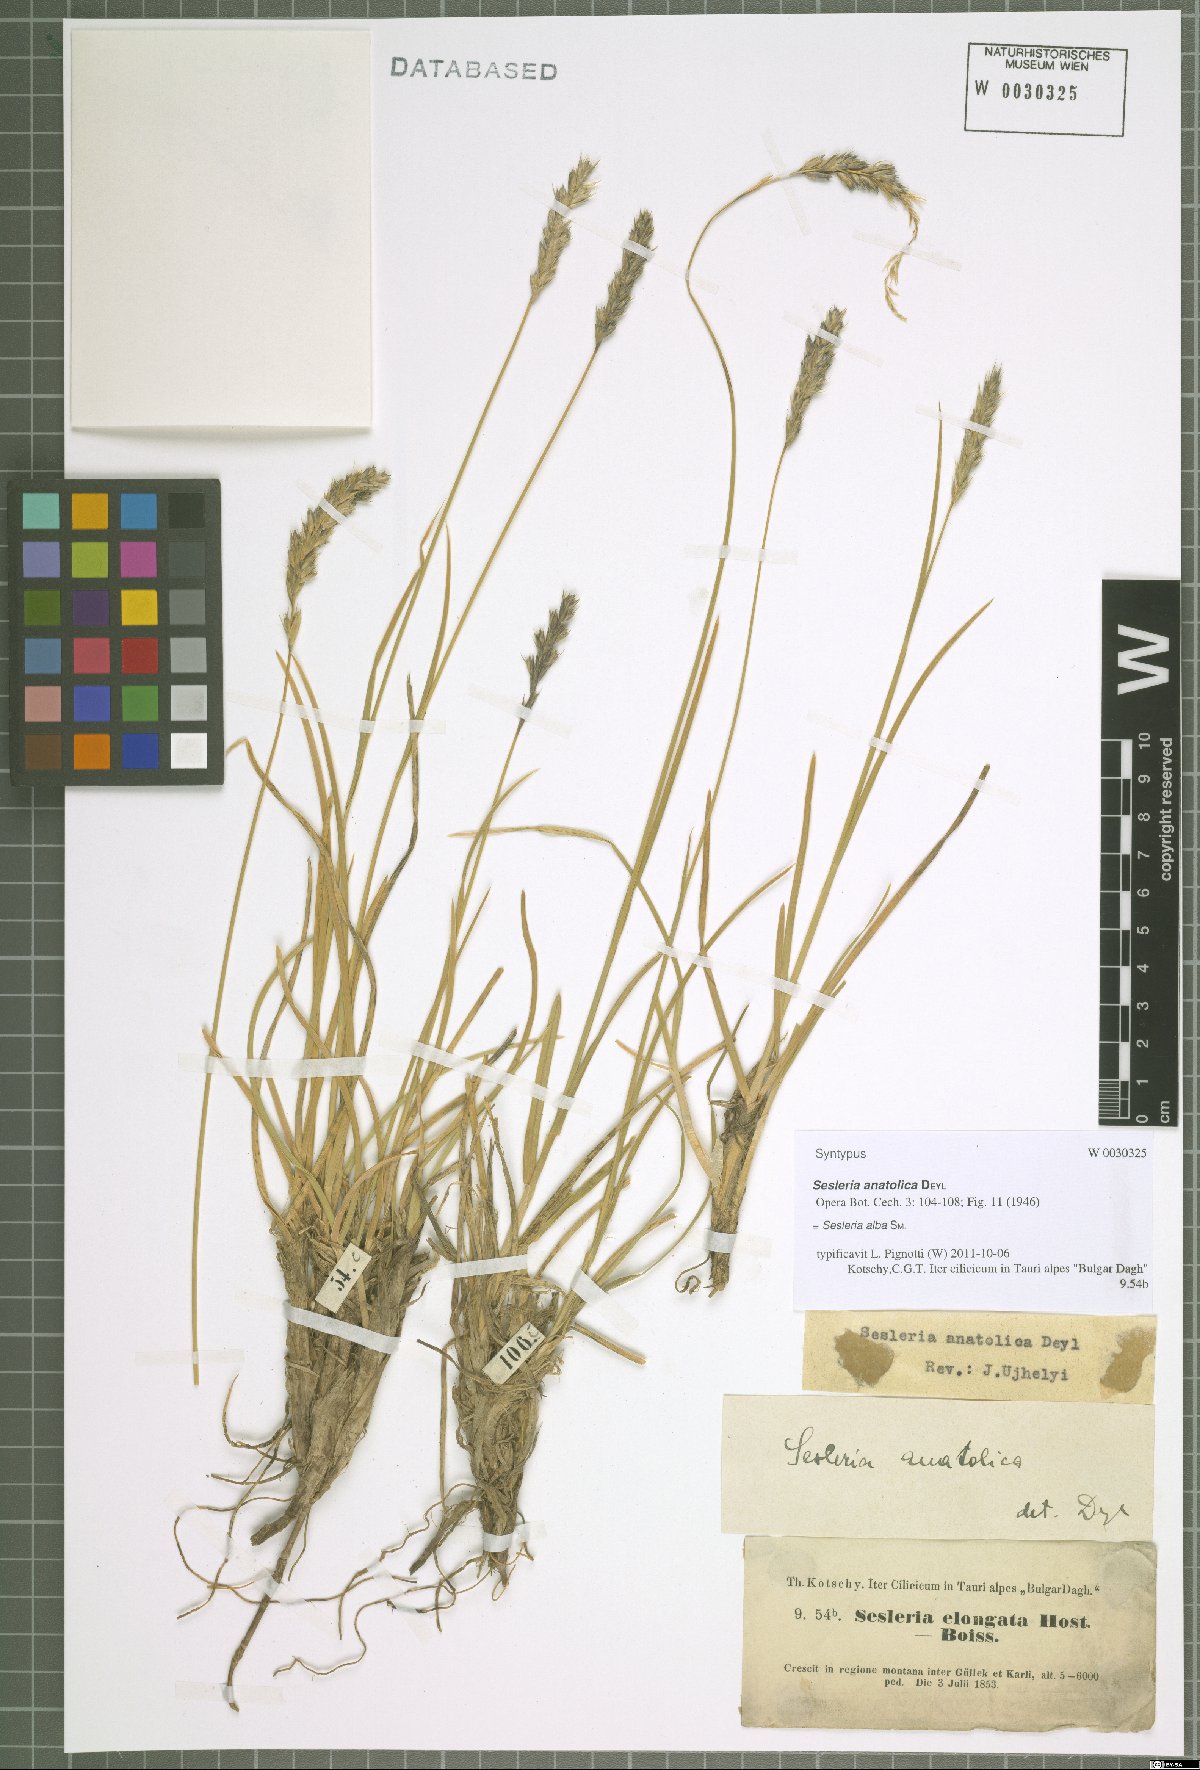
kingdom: Plantae
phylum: Tracheophyta
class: Liliopsida
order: Poales
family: Poaceae
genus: Sesleria
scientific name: Sesleria alba
